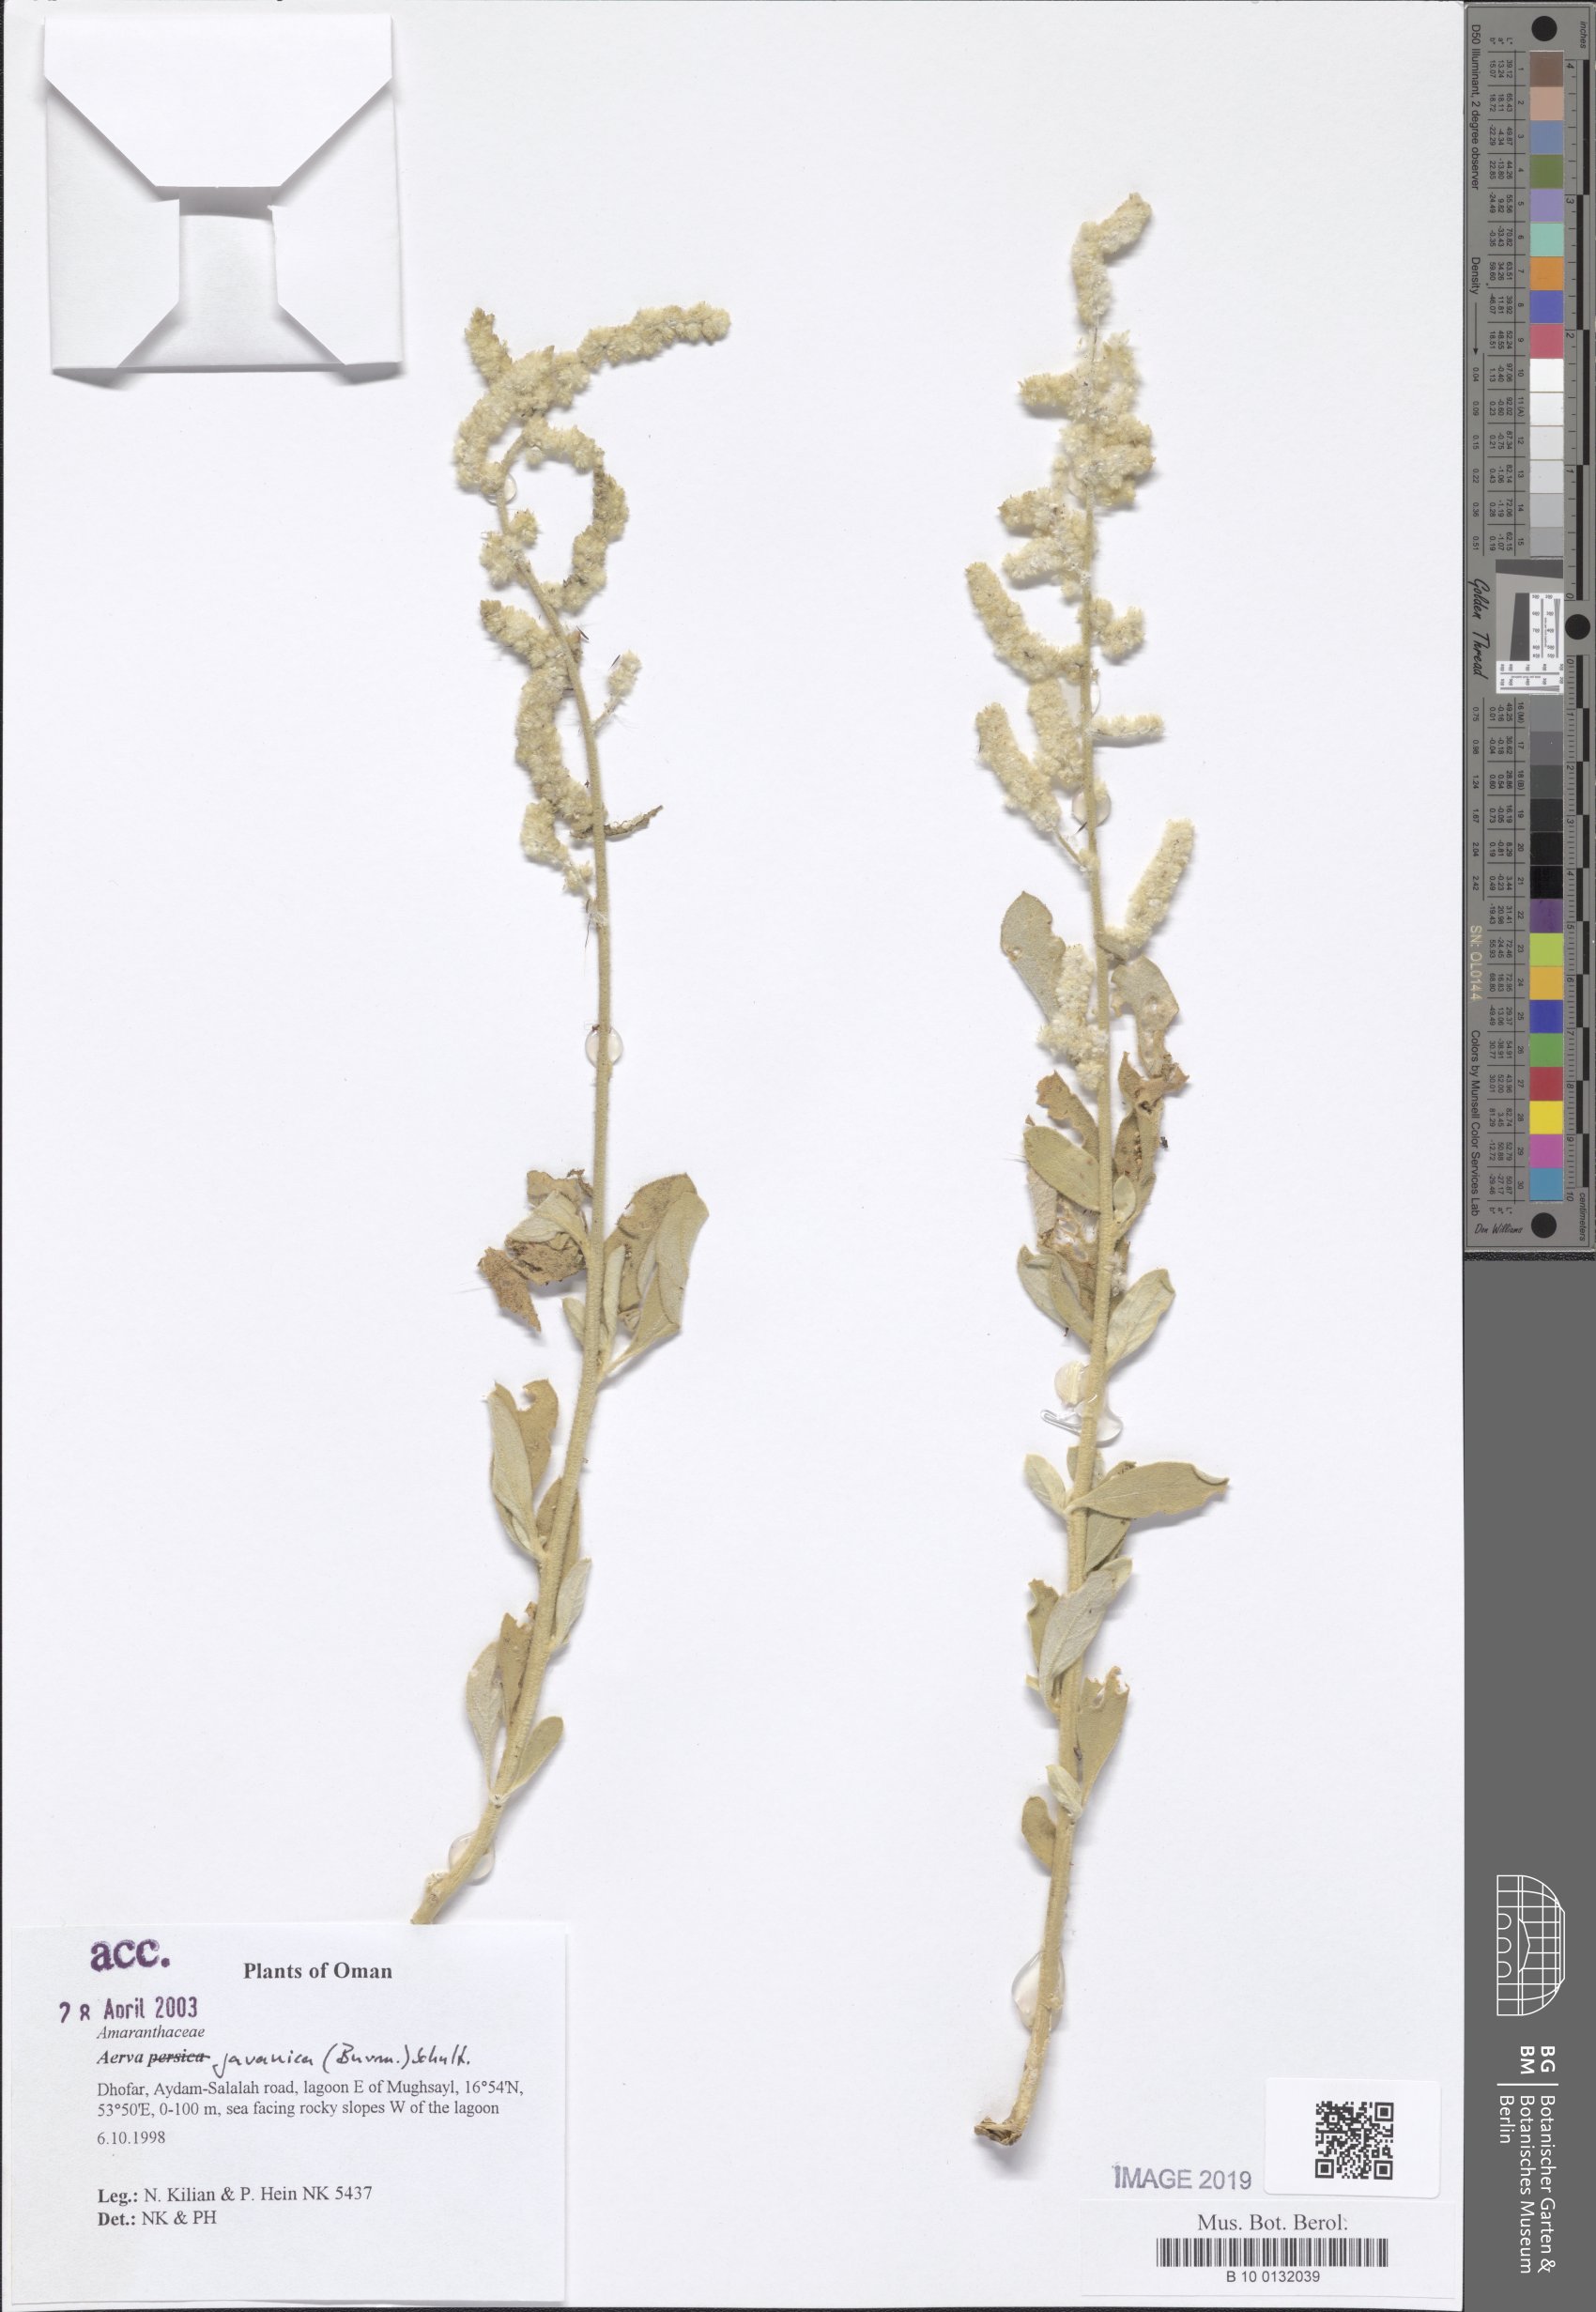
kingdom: Plantae
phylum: Tracheophyta
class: Magnoliopsida
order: Caryophyllales
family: Amaranthaceae
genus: Aerva
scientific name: Aerva javanica
